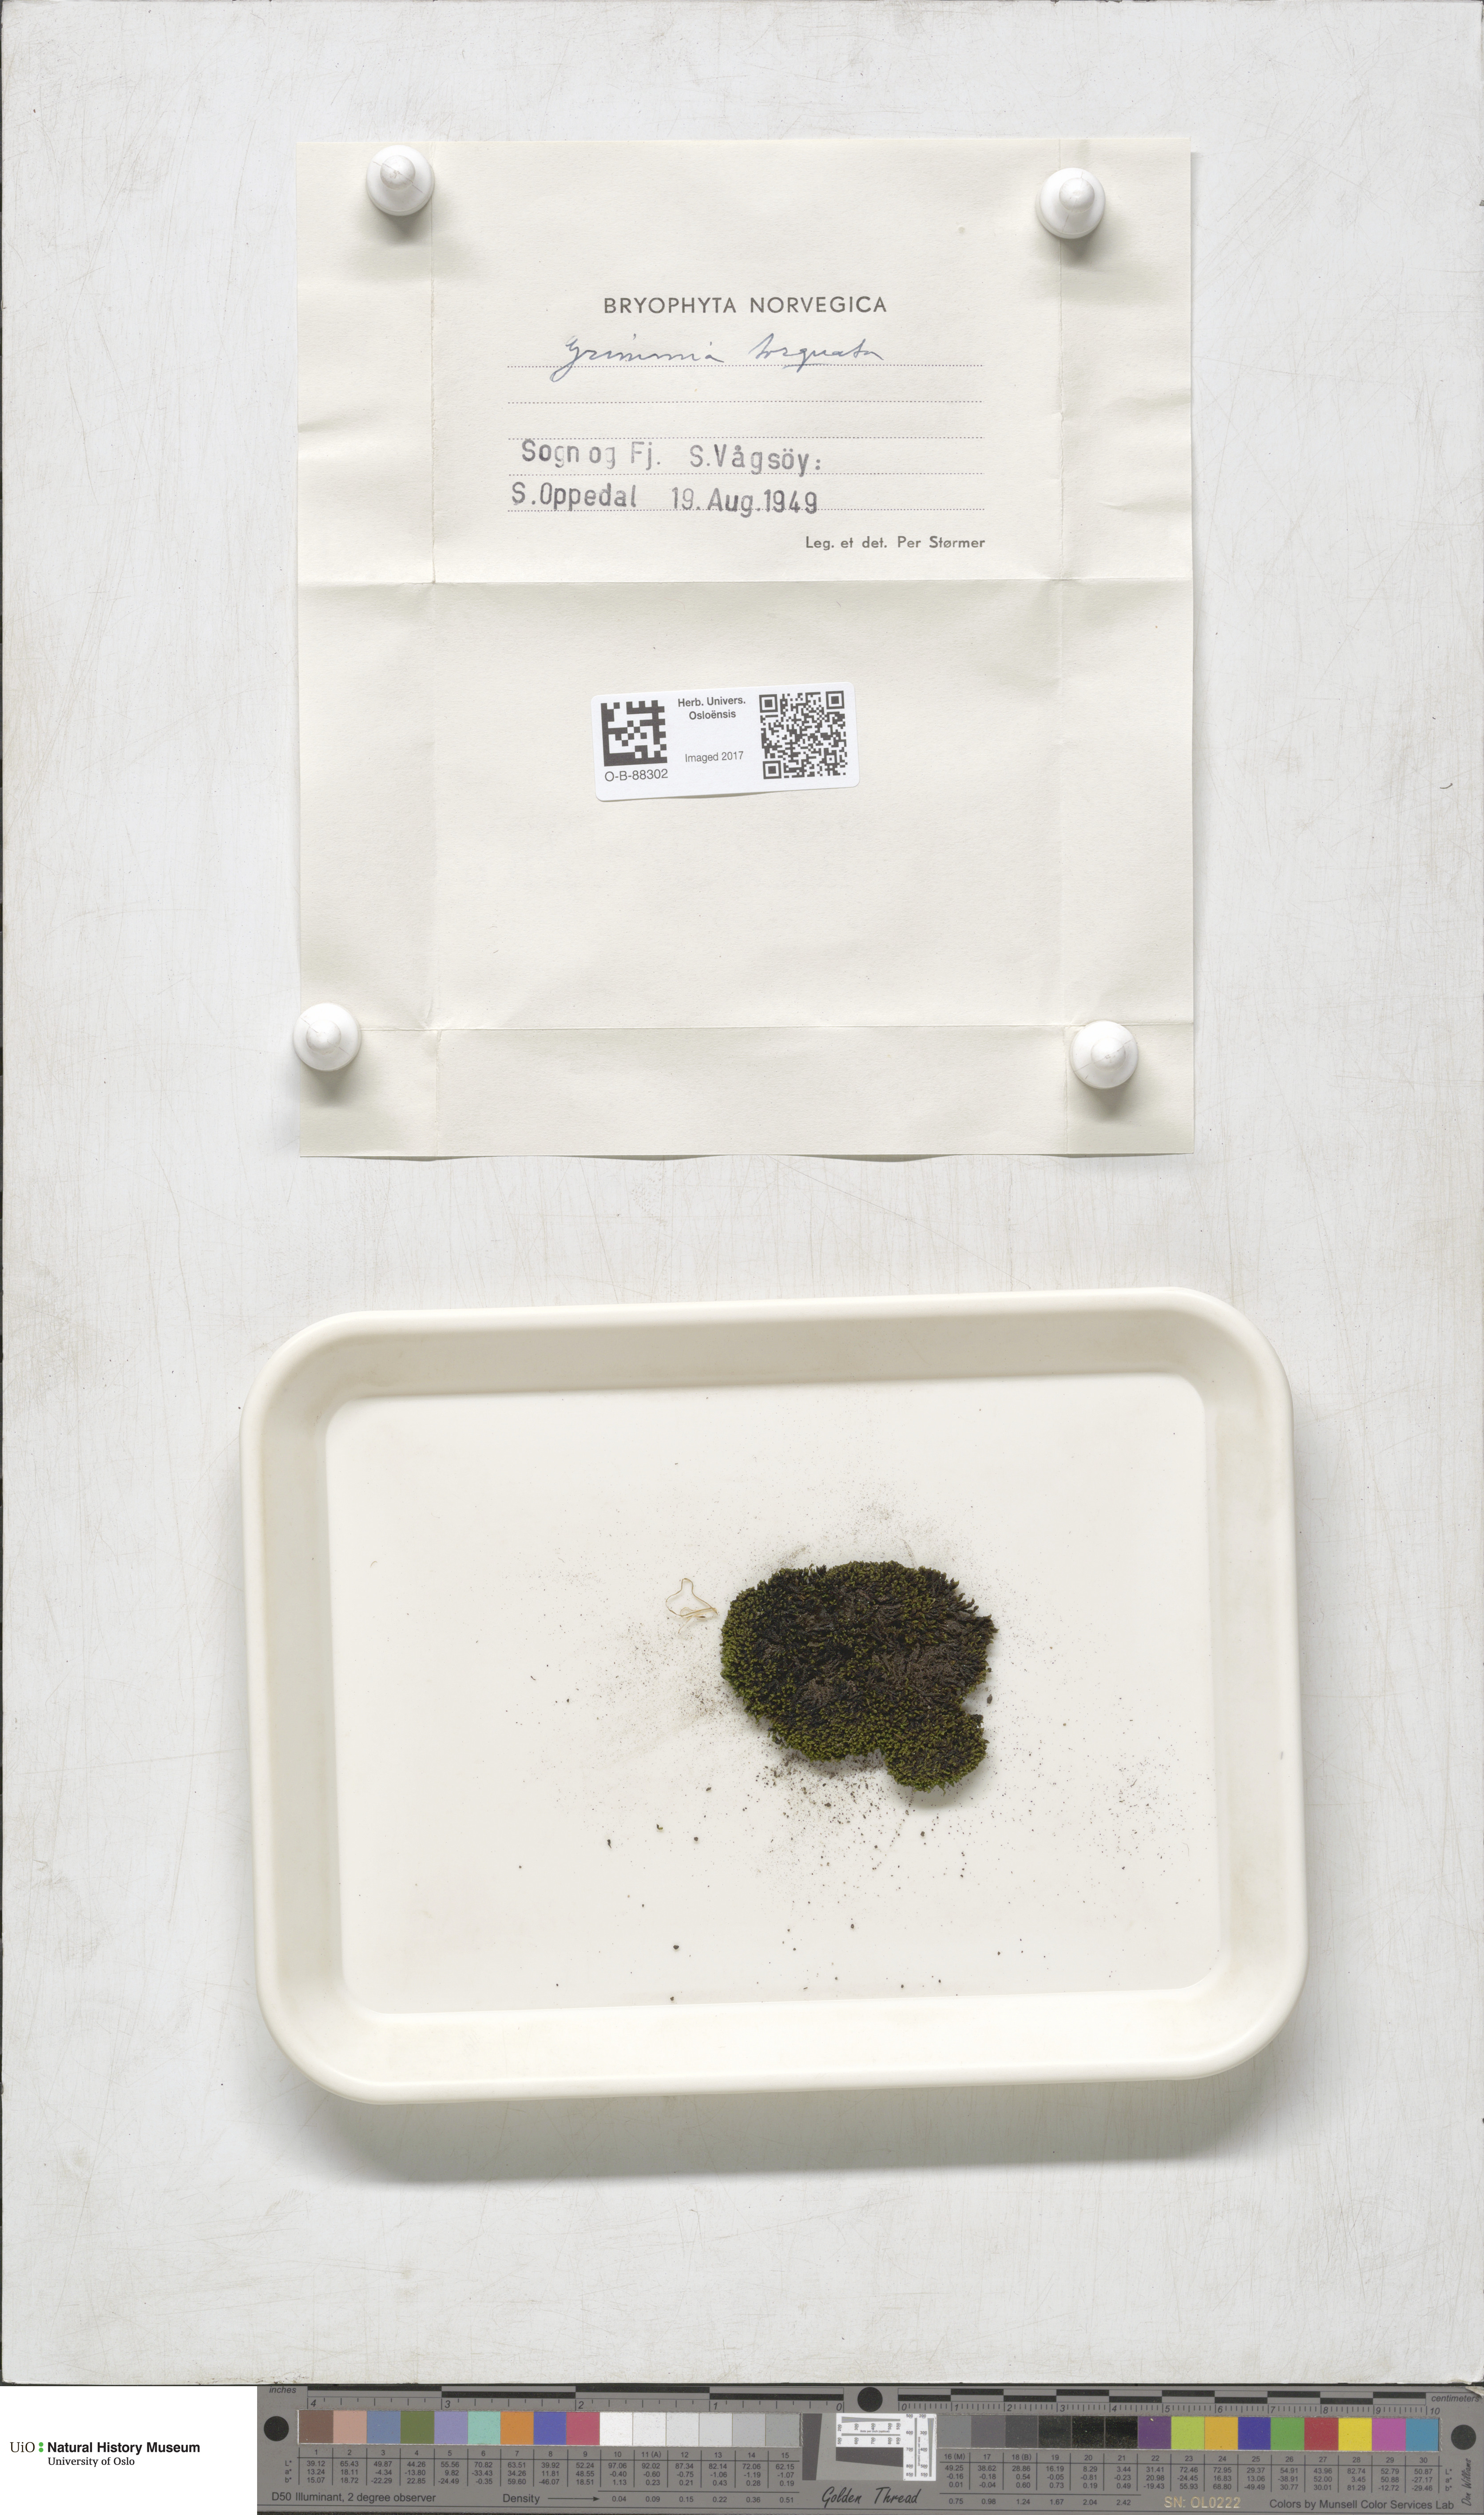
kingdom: Plantae
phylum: Bryophyta
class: Bryopsida
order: Grimmiales
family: Grimmiaceae
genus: Grimmia
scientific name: Grimmia torquata
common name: Twisted grimmia
